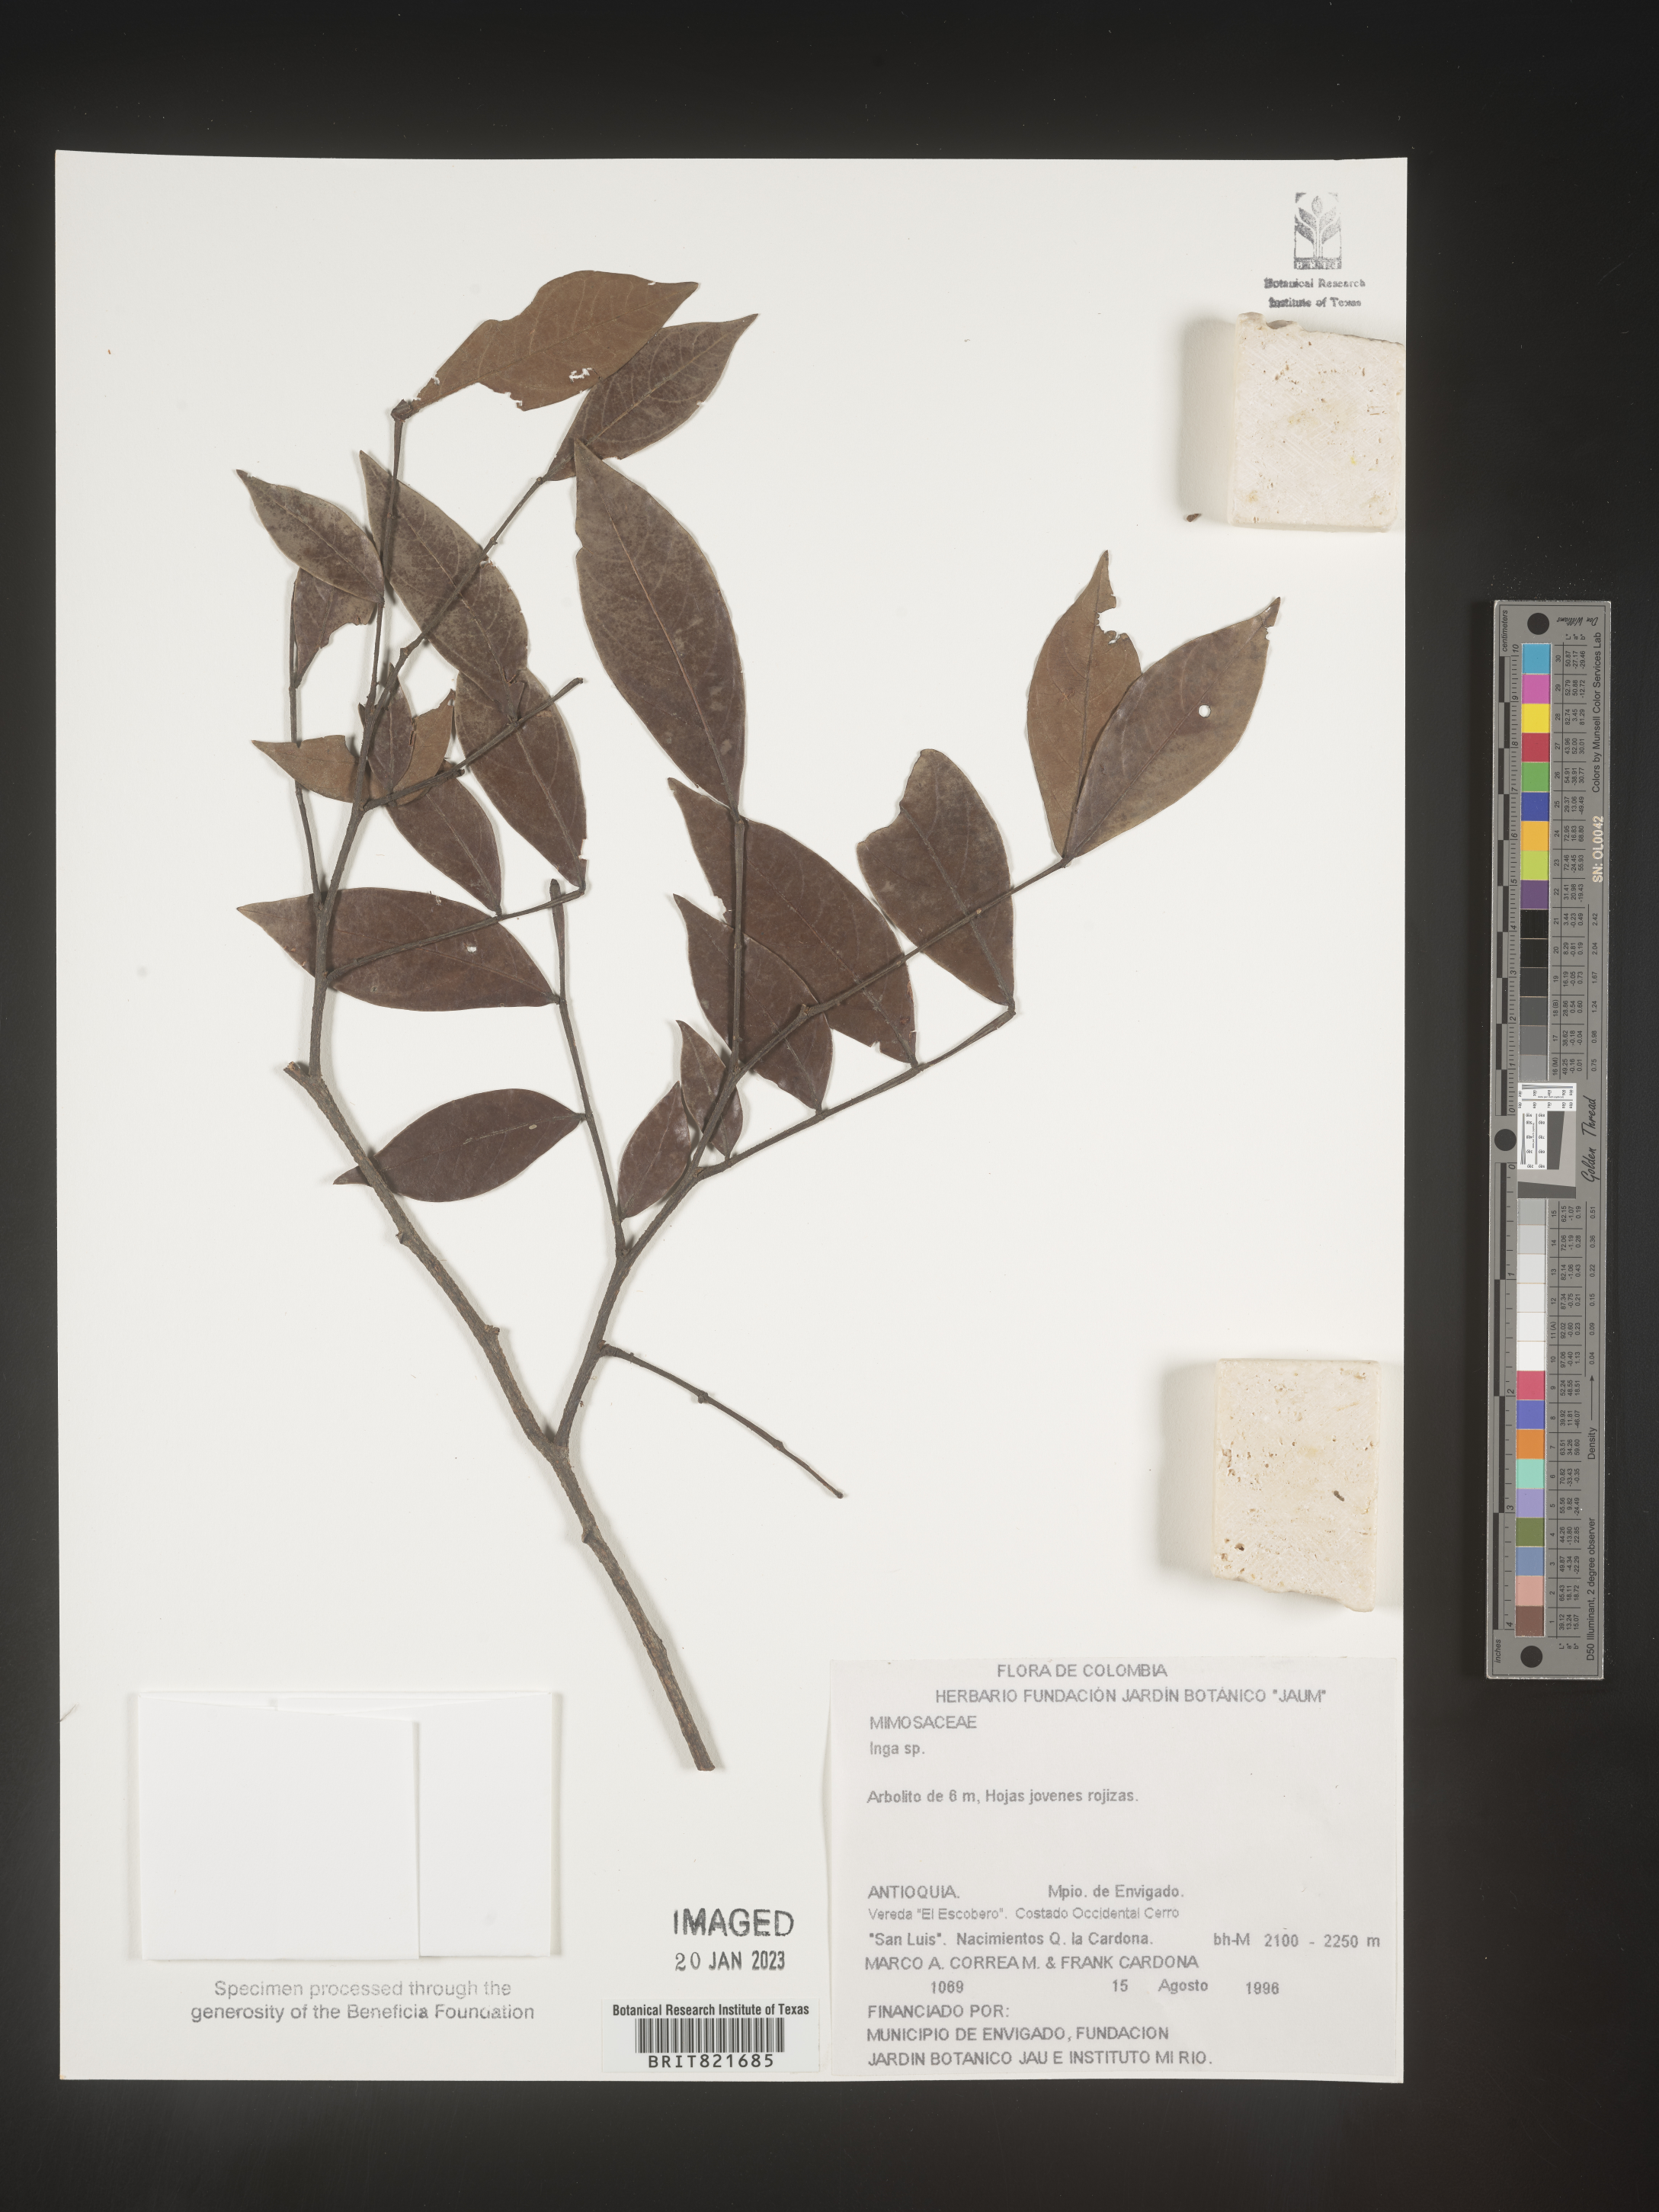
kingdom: Plantae
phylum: Tracheophyta
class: Magnoliopsida
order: Fabales
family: Fabaceae
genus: Inga
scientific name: Inga
